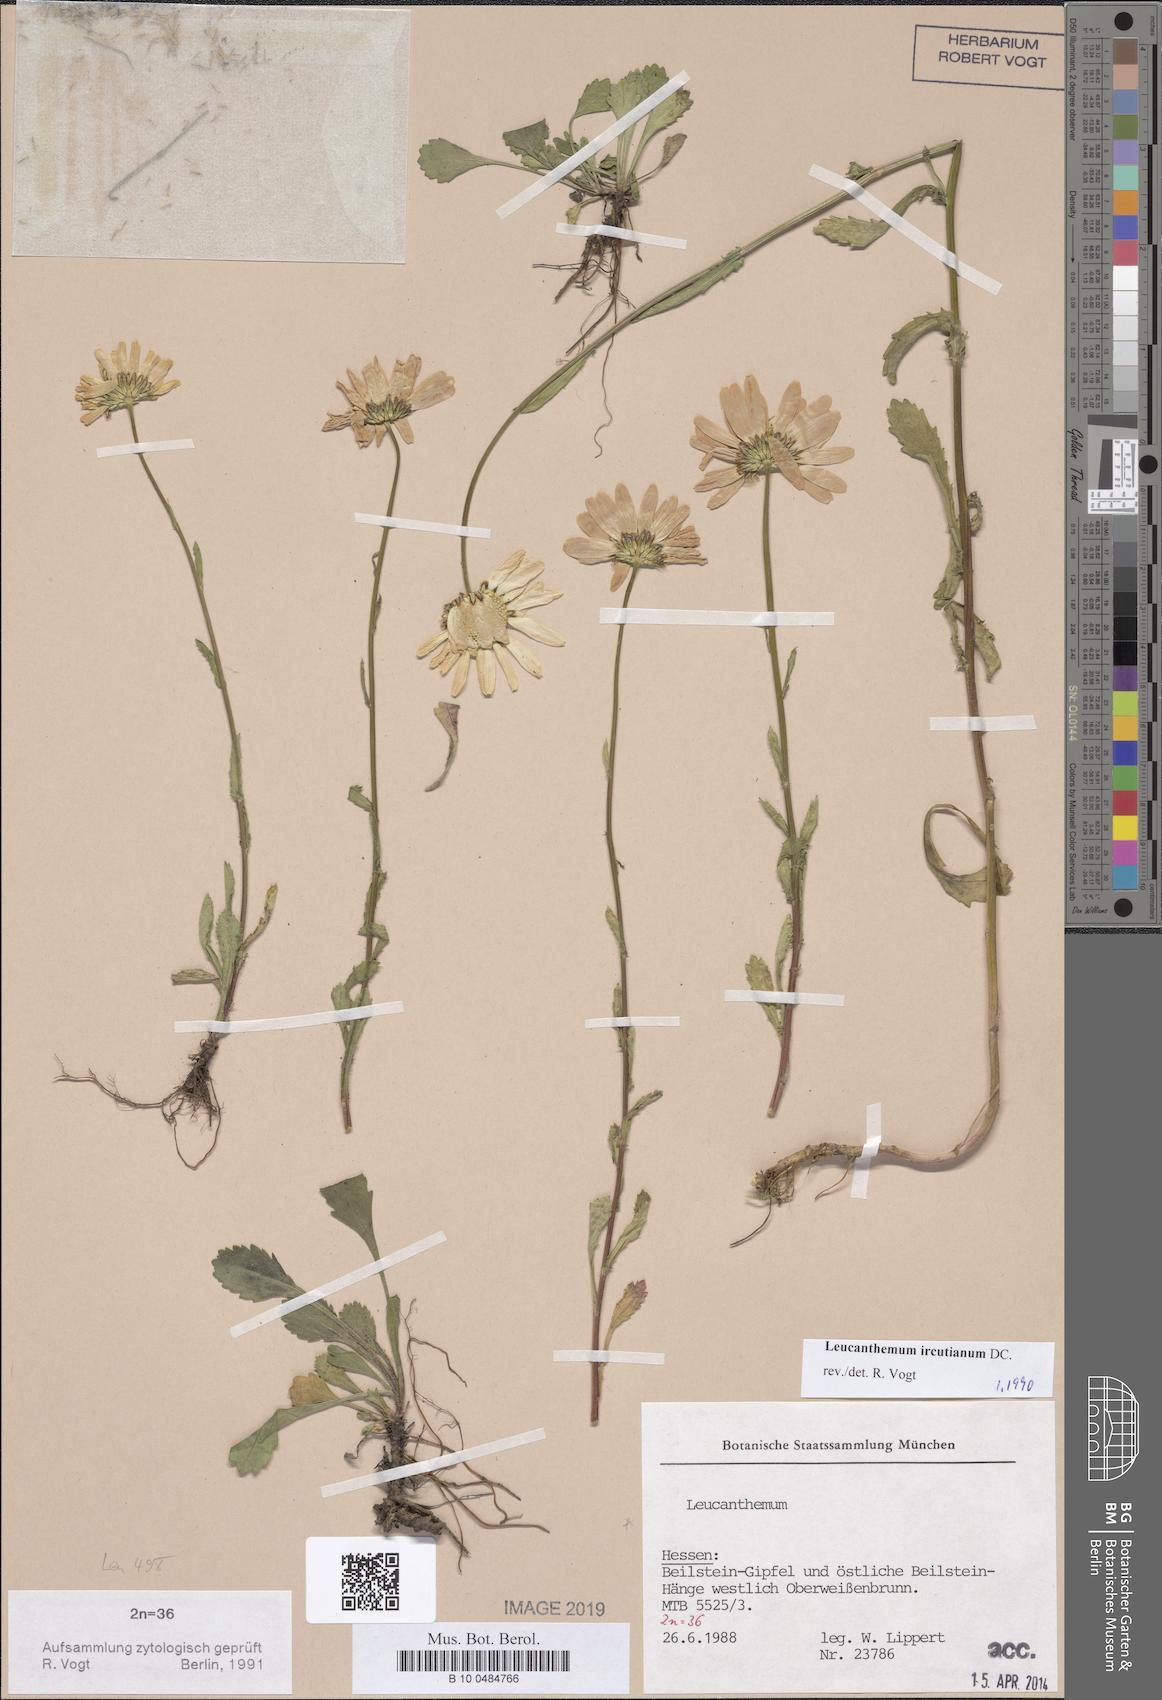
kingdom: Plantae
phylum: Tracheophyta
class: Magnoliopsida
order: Asterales
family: Asteraceae
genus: Leucanthemum
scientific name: Leucanthemum ircutianum
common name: Daisy
